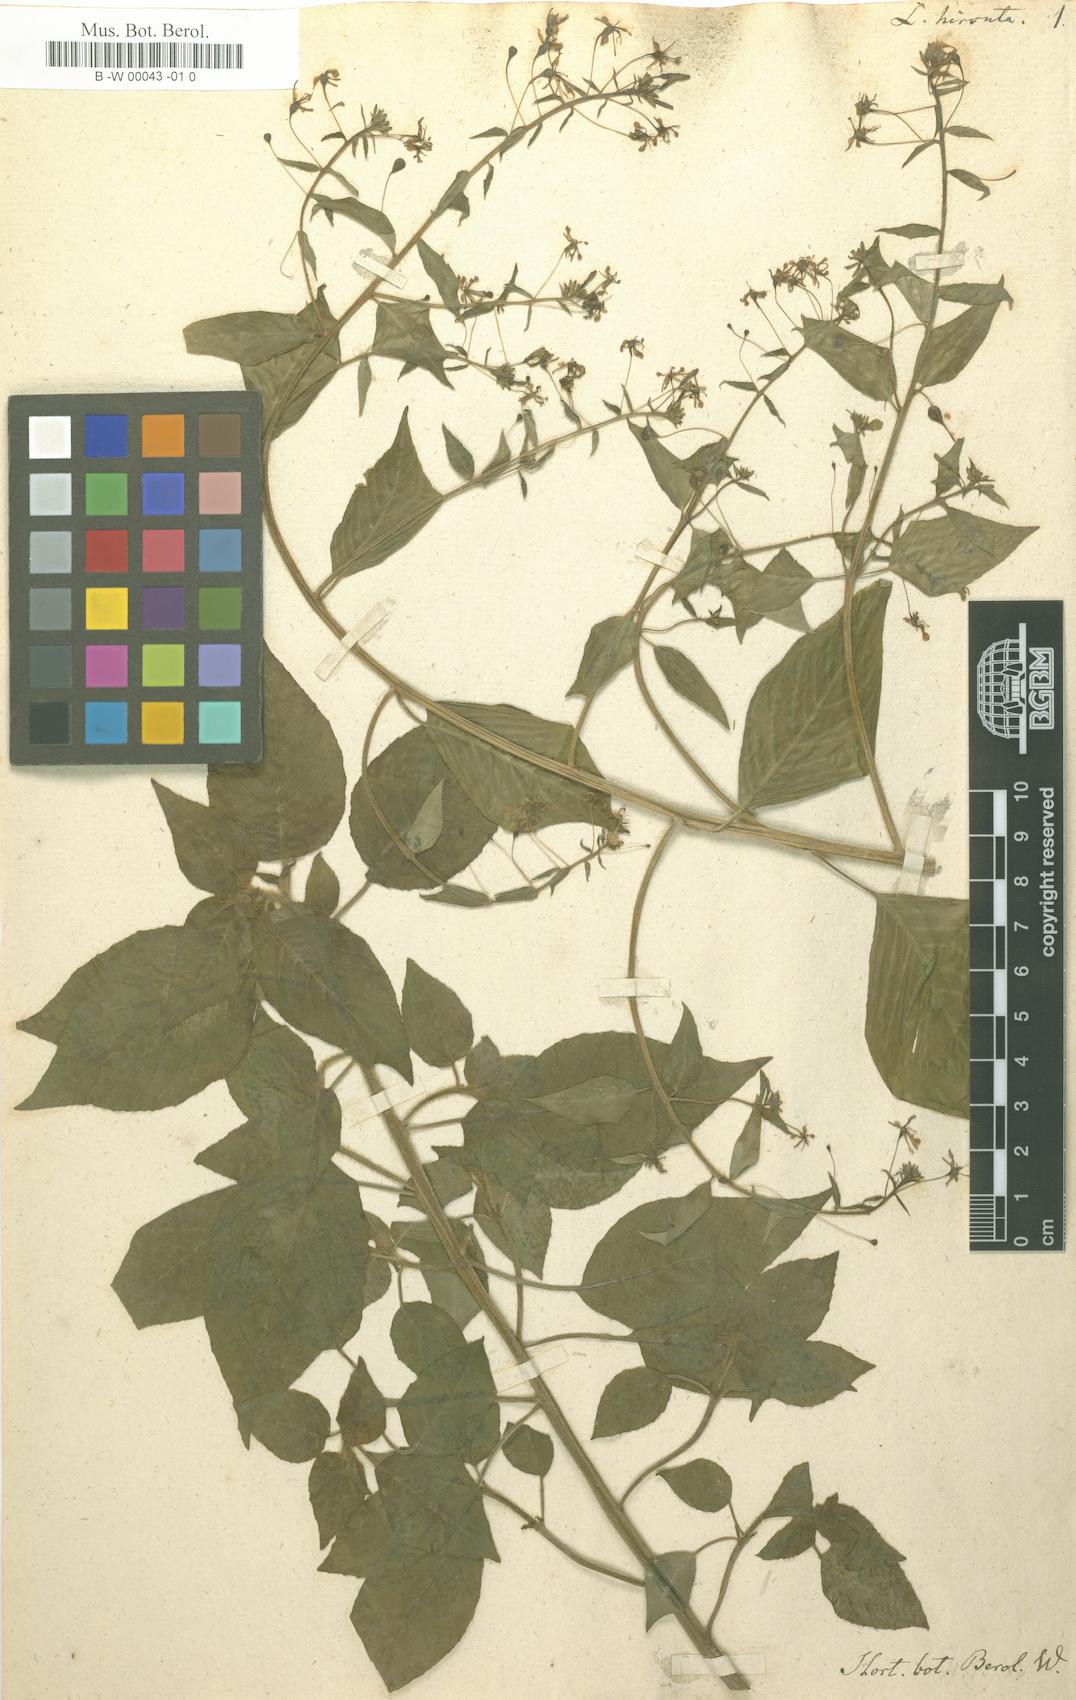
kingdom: Plantae
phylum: Tracheophyta
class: Magnoliopsida
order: Myrtales
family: Onagraceae
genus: Lopezia
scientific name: Lopezia racemosa
